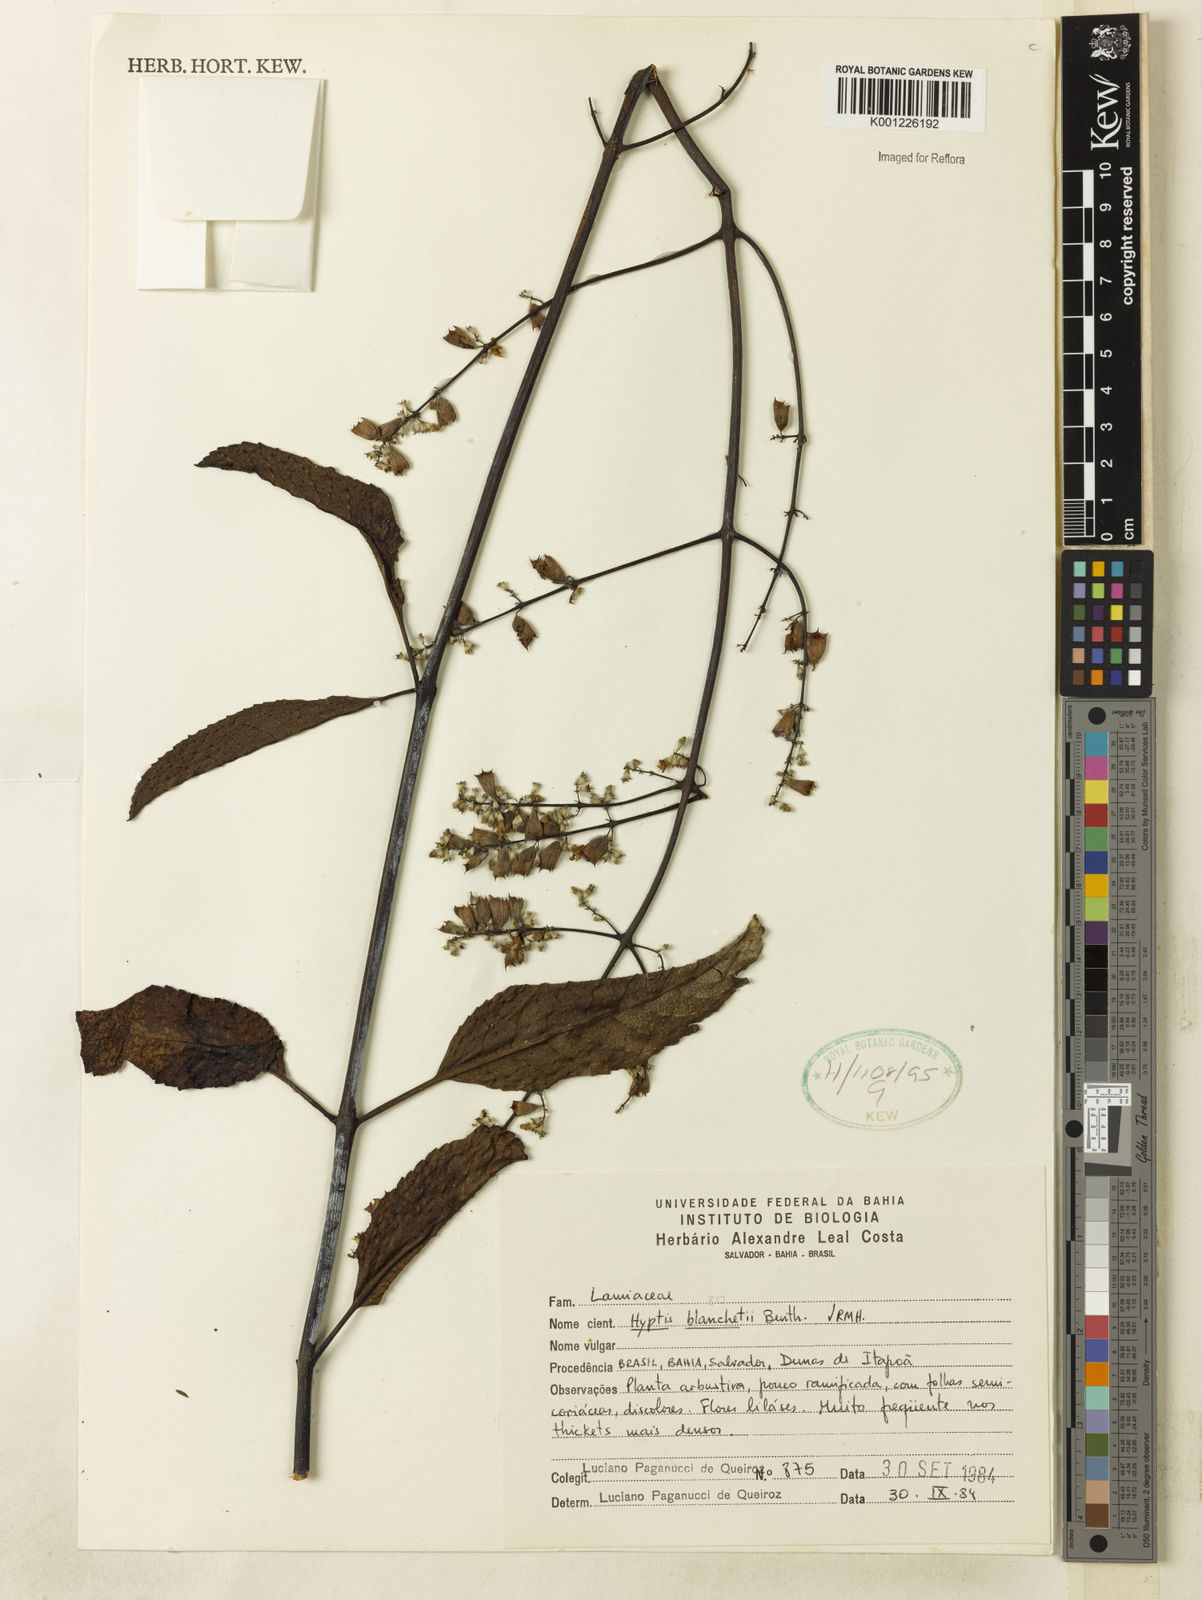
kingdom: Plantae
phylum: Tracheophyta
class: Magnoliopsida
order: Lamiales
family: Lamiaceae
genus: Eriope
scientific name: Eriope blanchetii
